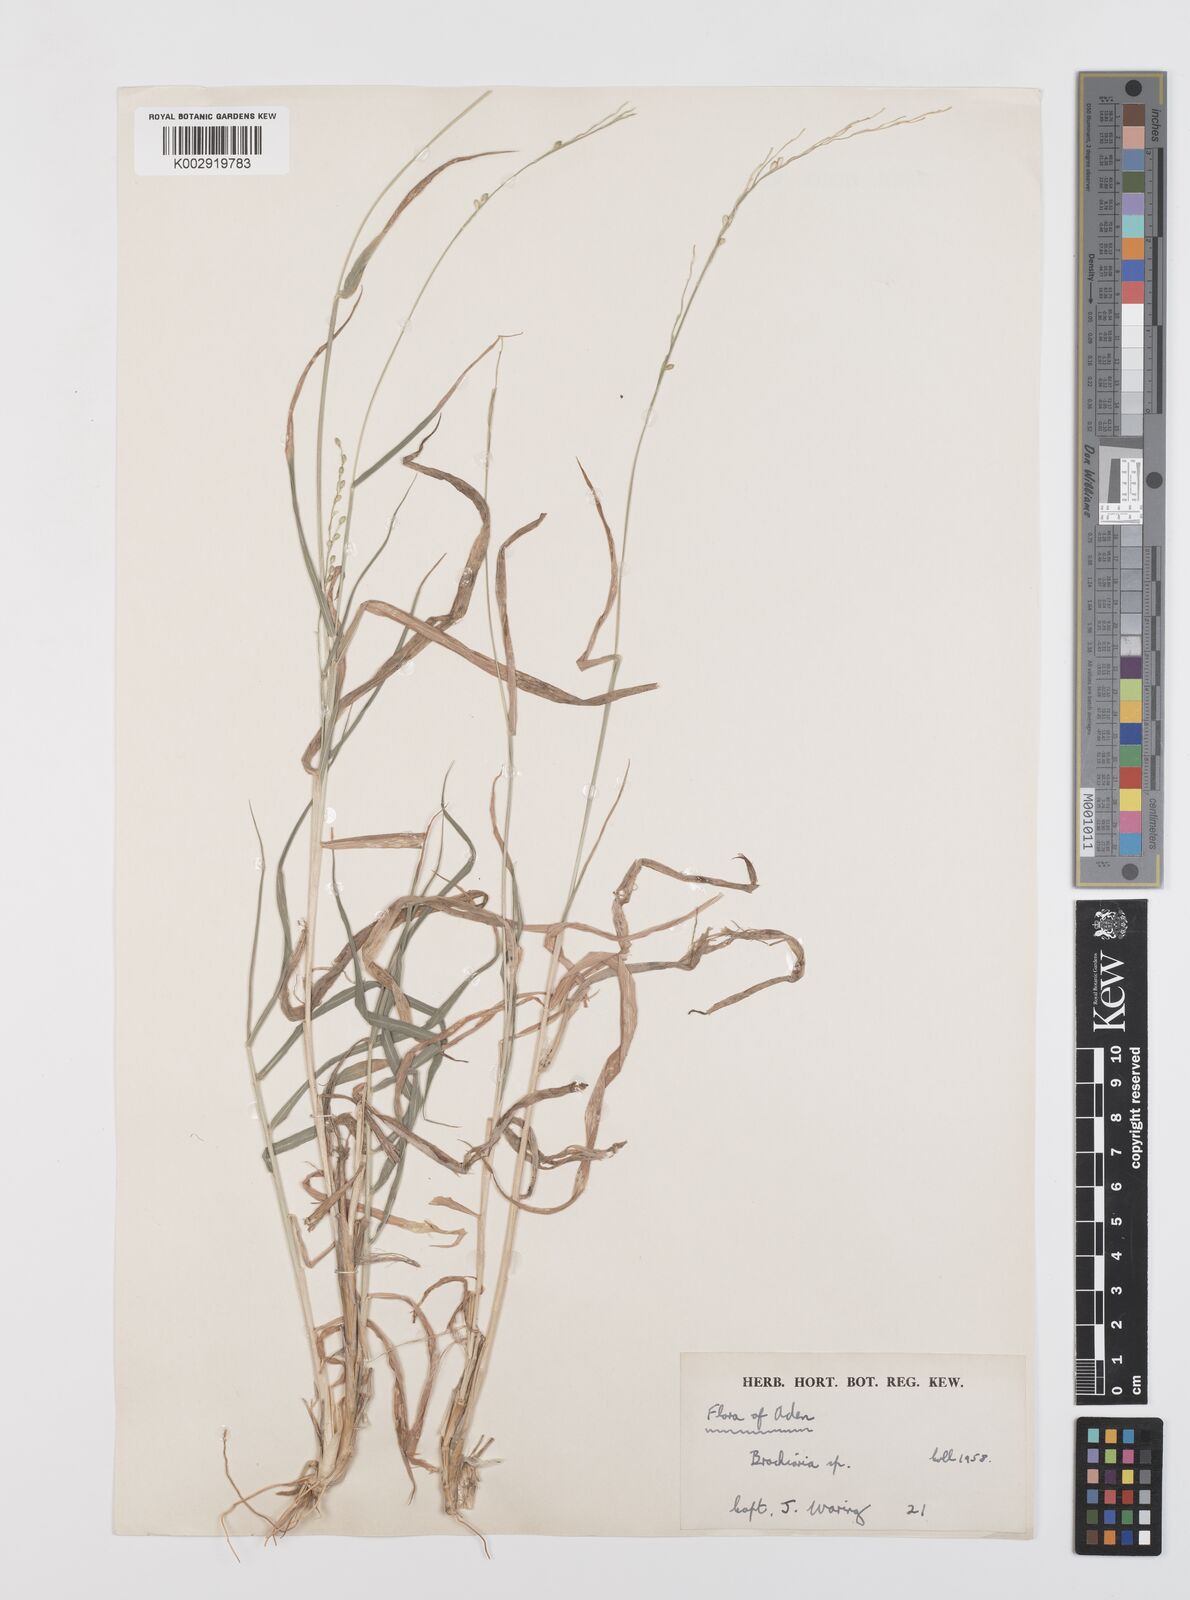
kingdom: Plantae
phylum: Tracheophyta
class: Liliopsida
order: Poales
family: Poaceae
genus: Urochloa
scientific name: Urochloa ovalis
